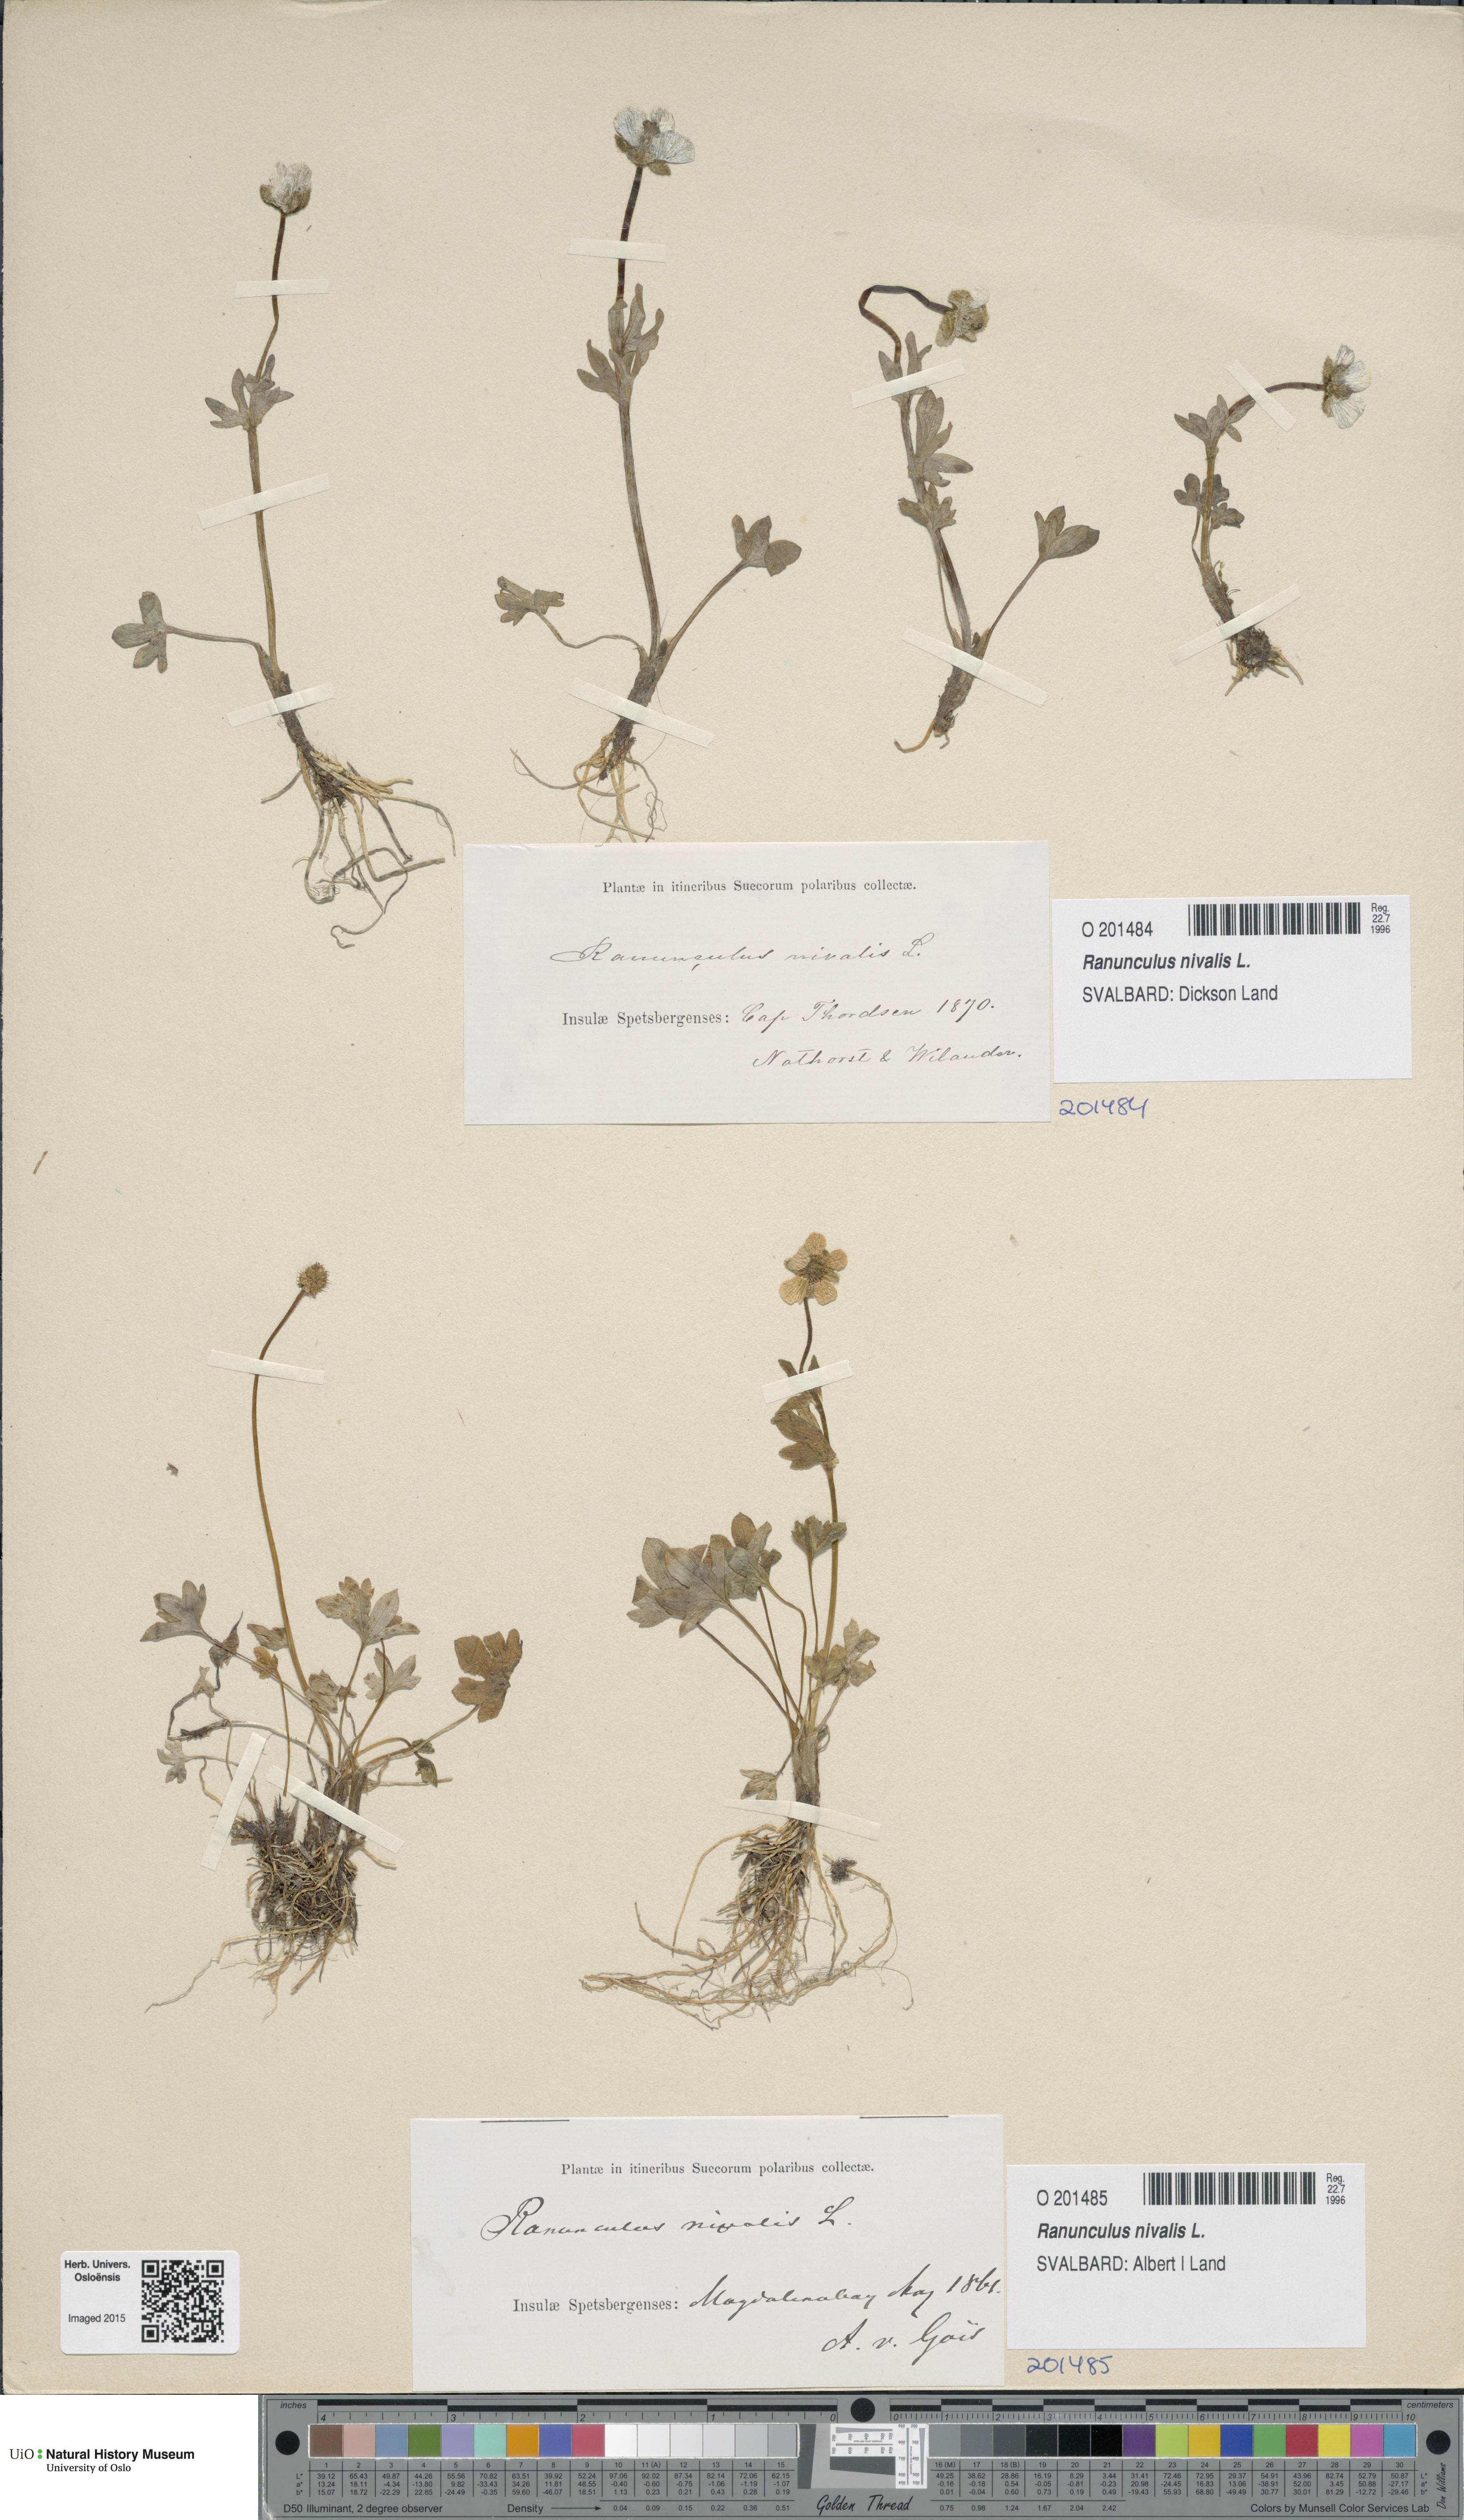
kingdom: Plantae
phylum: Tracheophyta
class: Magnoliopsida
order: Ranunculales
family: Ranunculaceae
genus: Ranunculus
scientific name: Ranunculus nivalis
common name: Snow buttercup
